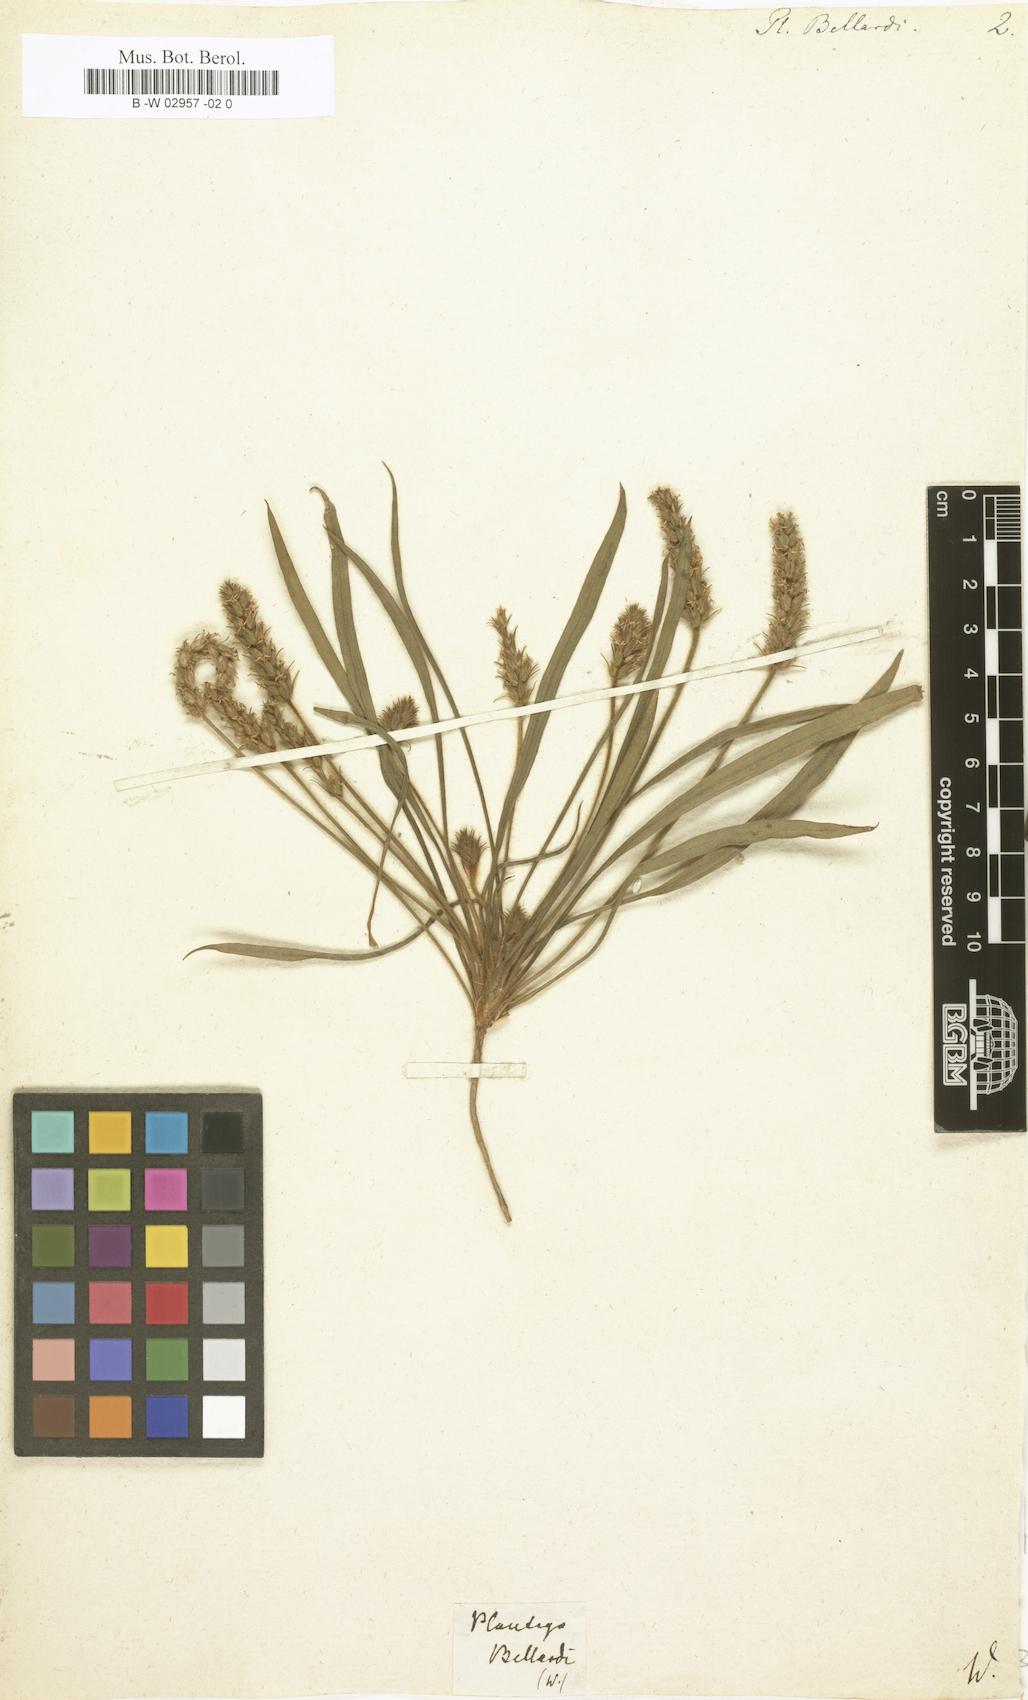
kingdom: Plantae
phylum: Tracheophyta
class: Magnoliopsida
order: Lamiales
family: Plantaginaceae
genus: Plantago
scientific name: Plantago bellardi
